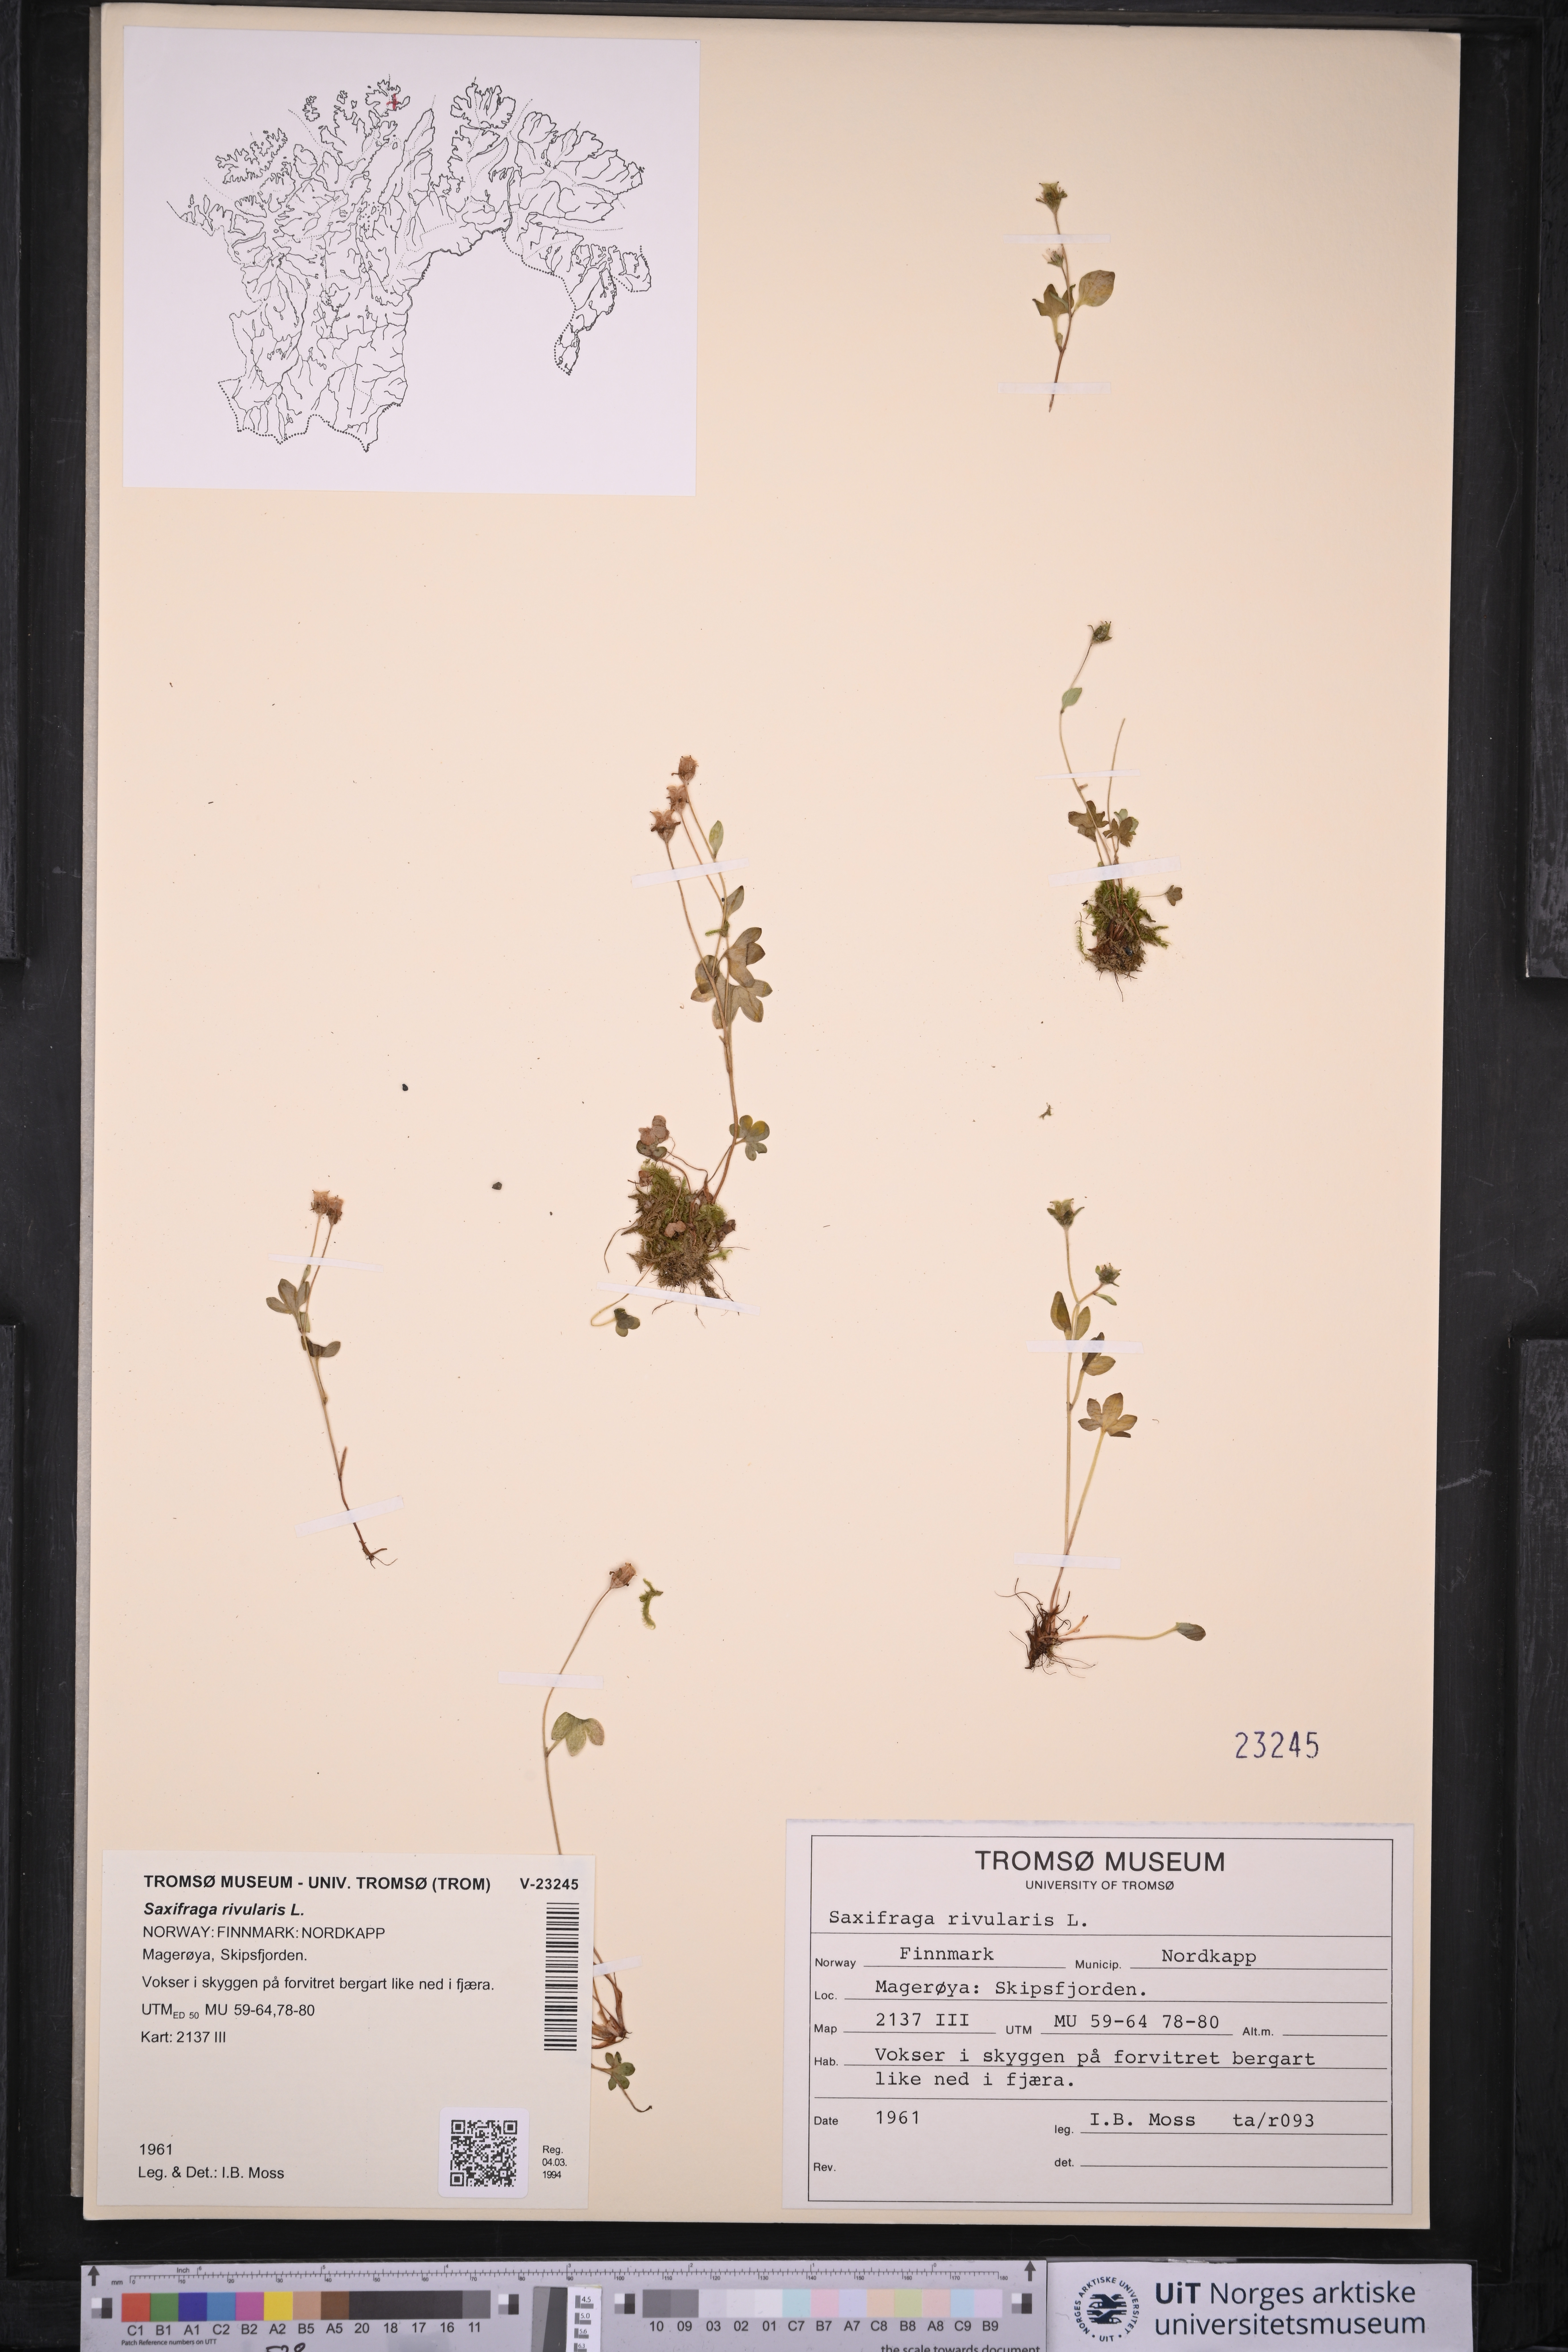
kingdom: Plantae
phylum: Tracheophyta
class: Magnoliopsida
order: Saxifragales
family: Saxifragaceae
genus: Saxifraga
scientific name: Saxifraga rivularis
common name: Highland saxifrage
